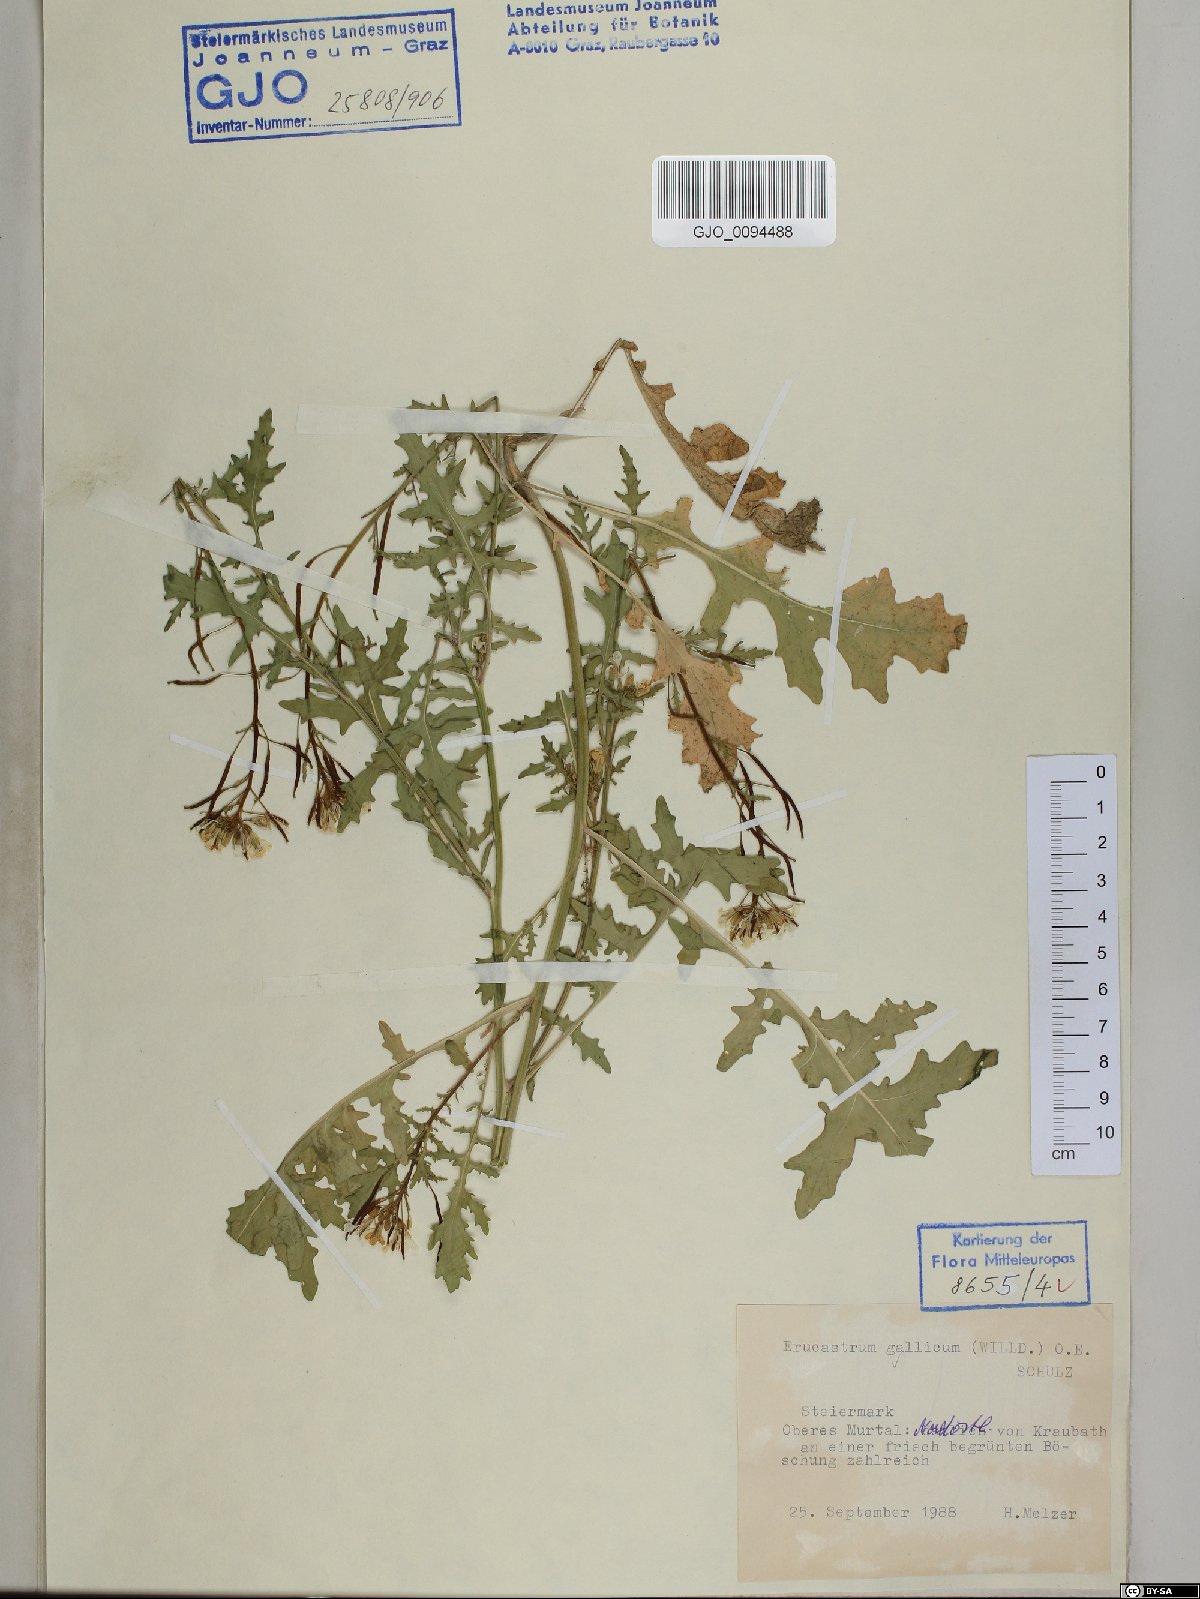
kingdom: Plantae
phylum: Tracheophyta
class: Magnoliopsida
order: Brassicales
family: Brassicaceae
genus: Erucastrum
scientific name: Erucastrum gallicum
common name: Hairy rocket
